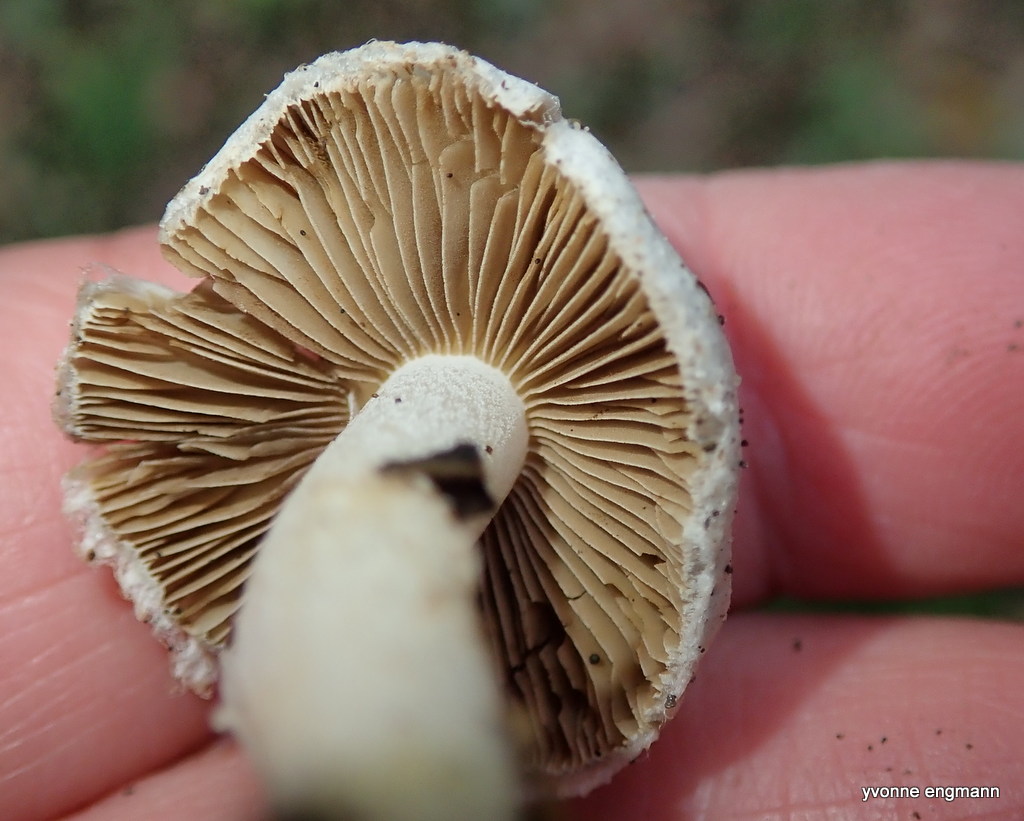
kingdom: Fungi
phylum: Basidiomycota
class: Agaricomycetes
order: Agaricales
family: Inocybaceae
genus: Inocybe
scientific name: Inocybe geophylla
